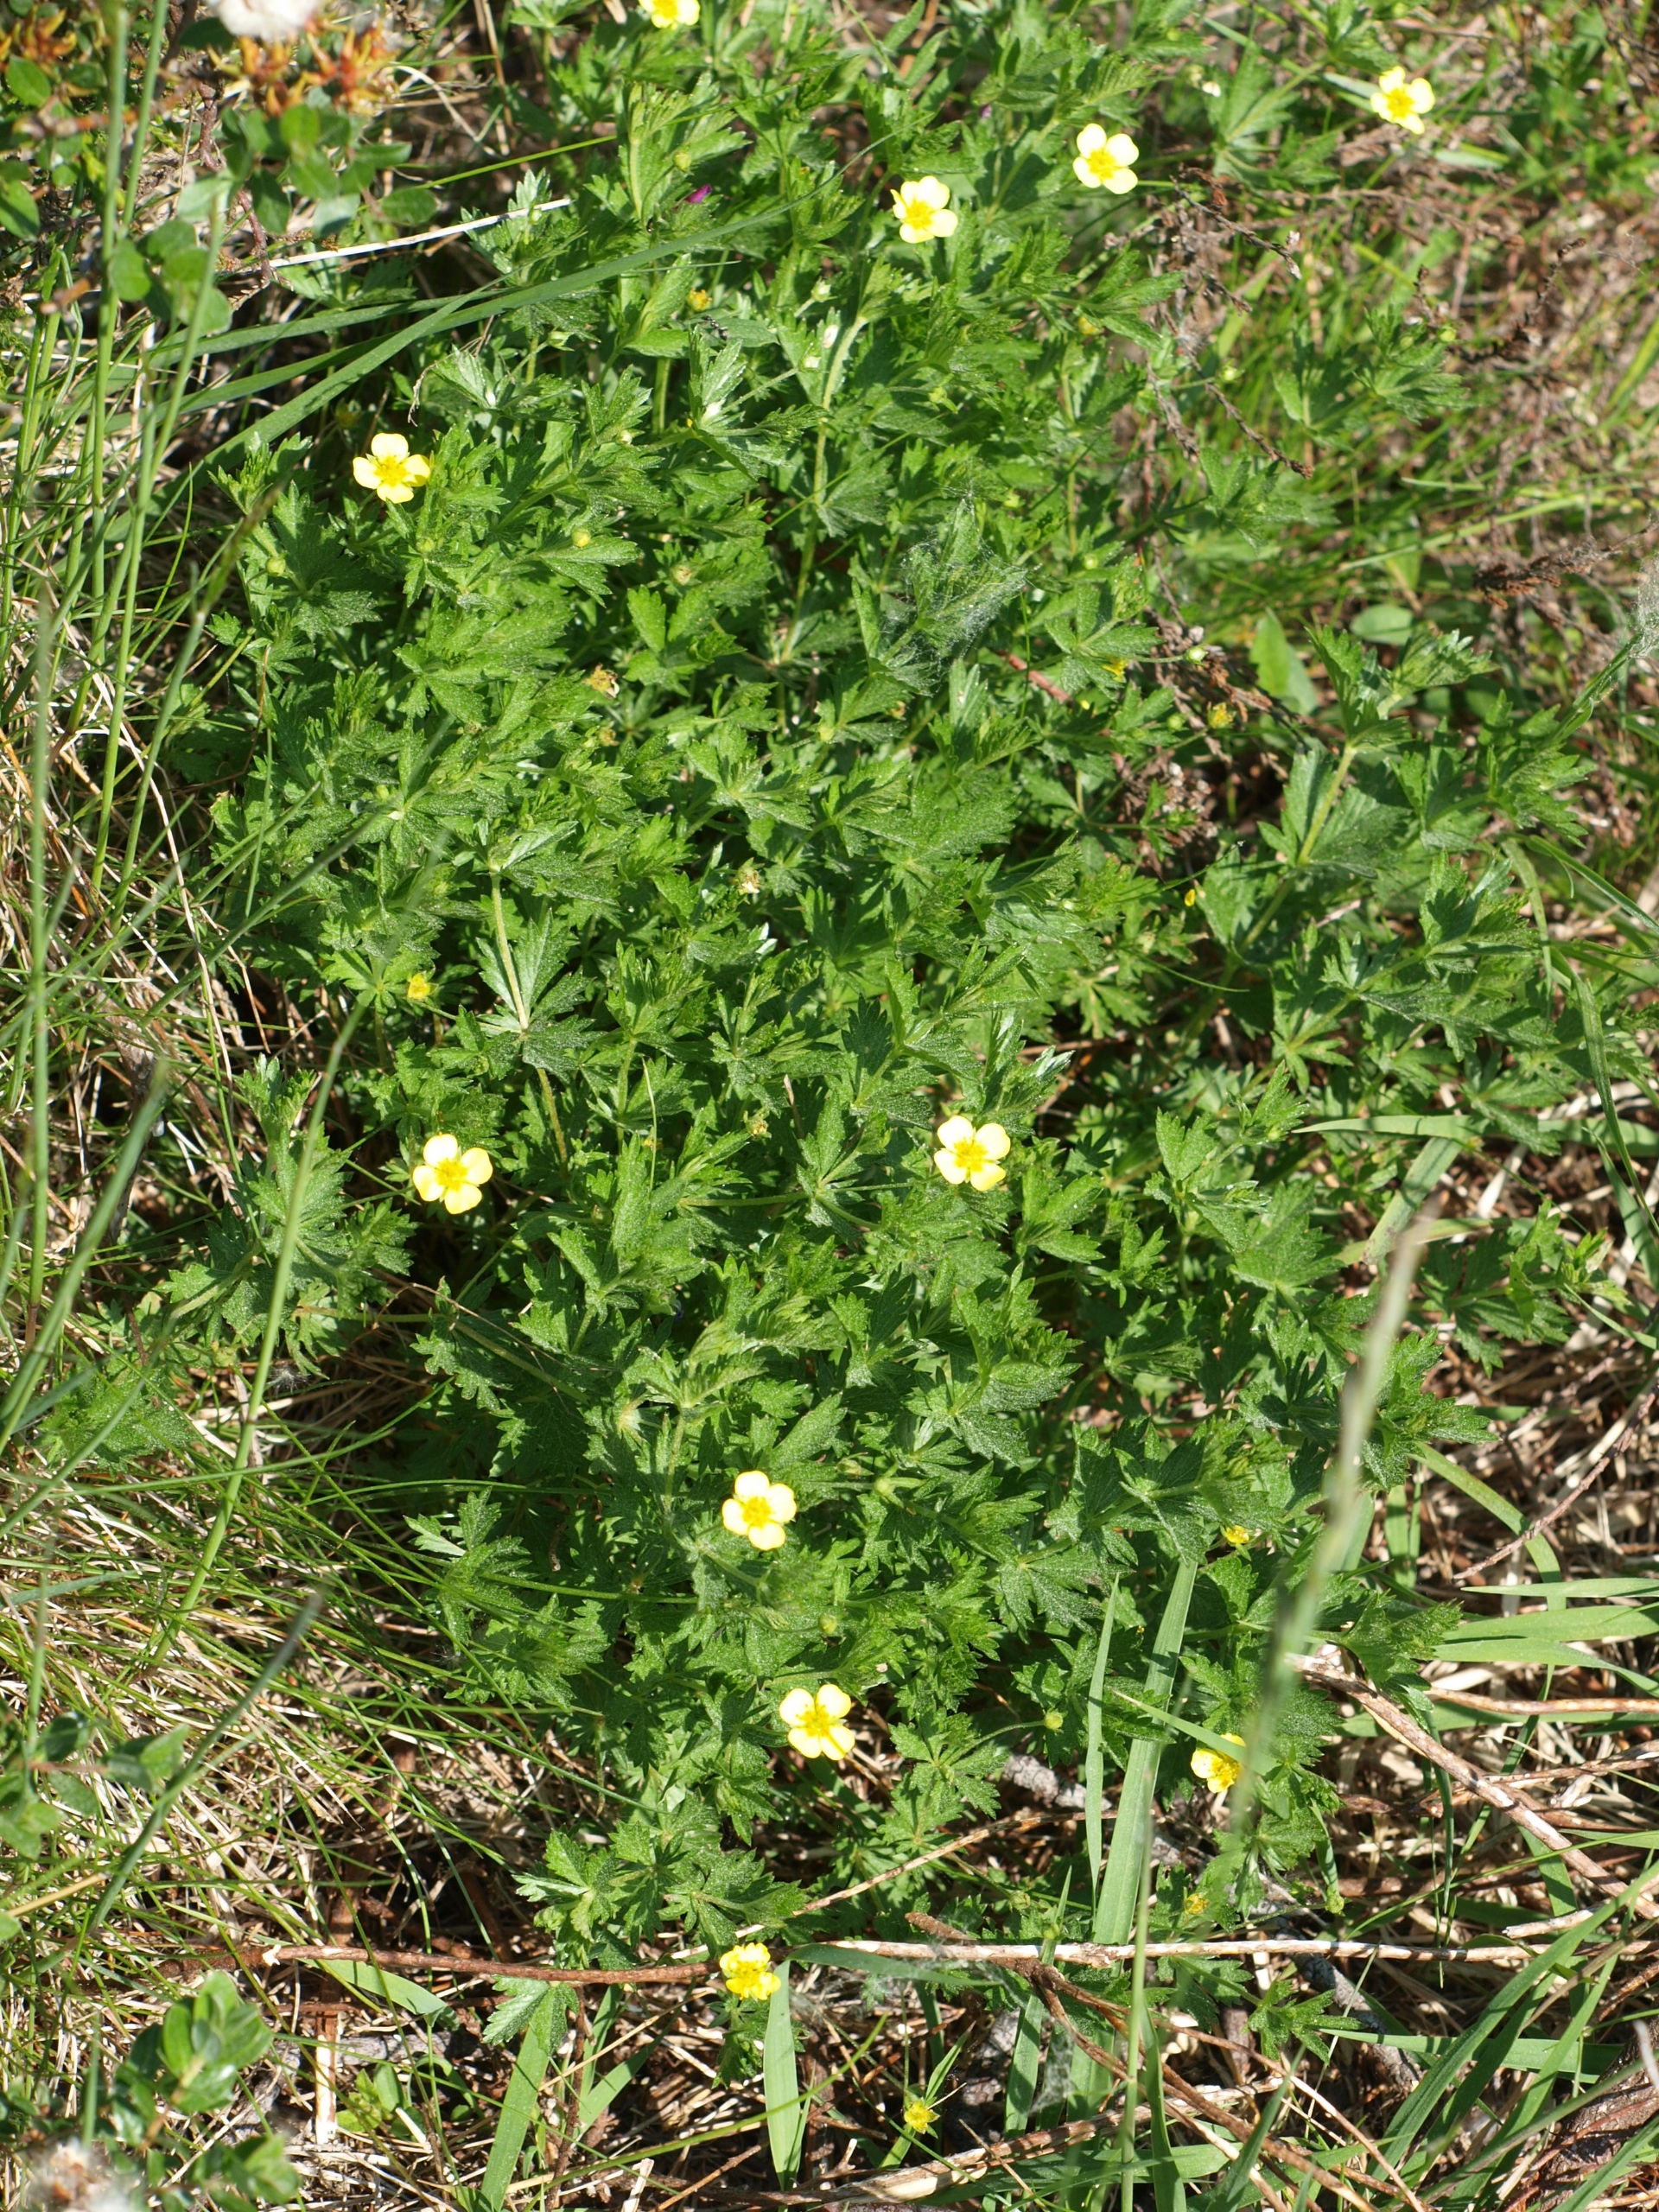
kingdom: Plantae
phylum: Tracheophyta
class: Magnoliopsida
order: Rosales
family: Rosaceae
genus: Potentilla
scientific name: Potentilla erecta
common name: Tormentil
